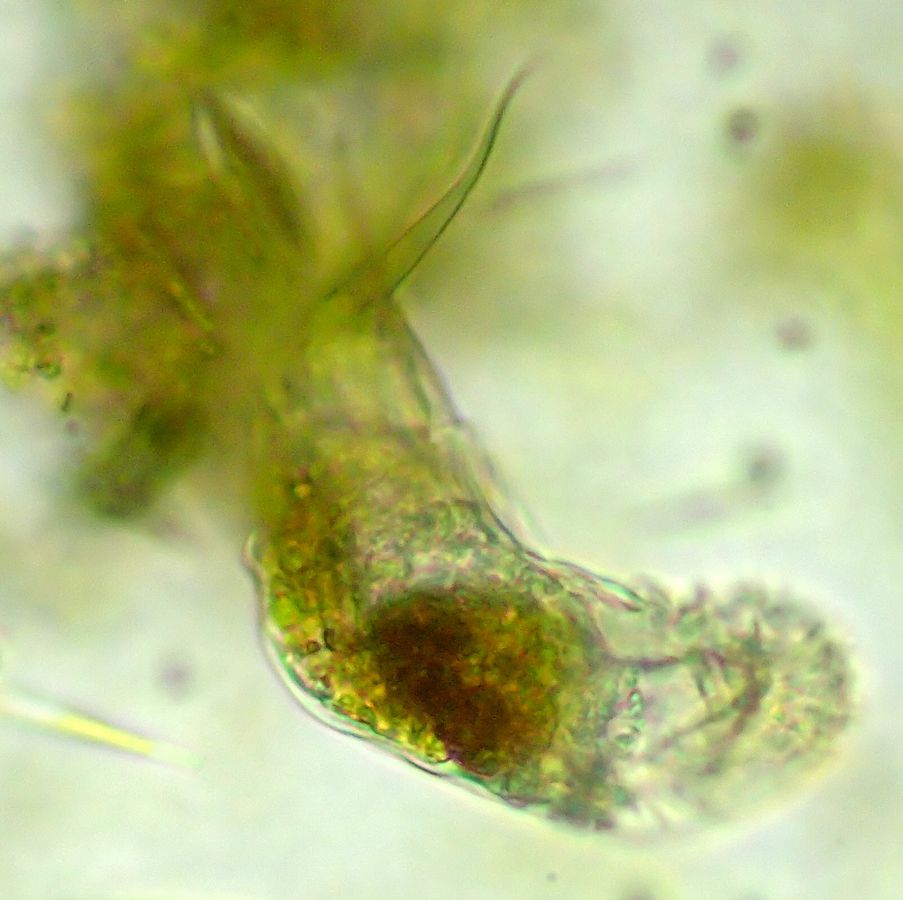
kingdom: Animalia
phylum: Rotifera
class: Eurotatoria
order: Ploima
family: Dicranophoridae
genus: Dicranophorus
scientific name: Dicranophorus grandis
